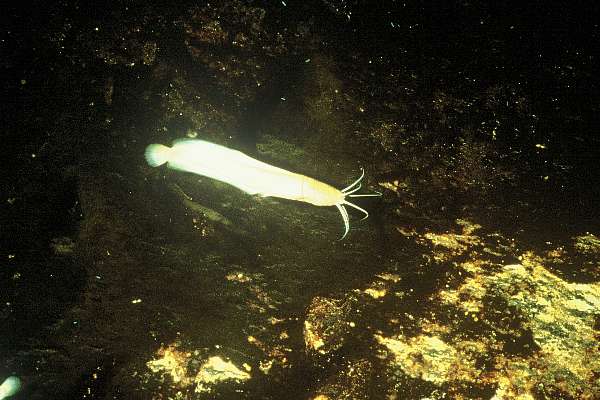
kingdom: Animalia
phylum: Chordata
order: Siluriformes
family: Clariidae
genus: Clarias
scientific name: Clarias cavernicola
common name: Cave catfish
